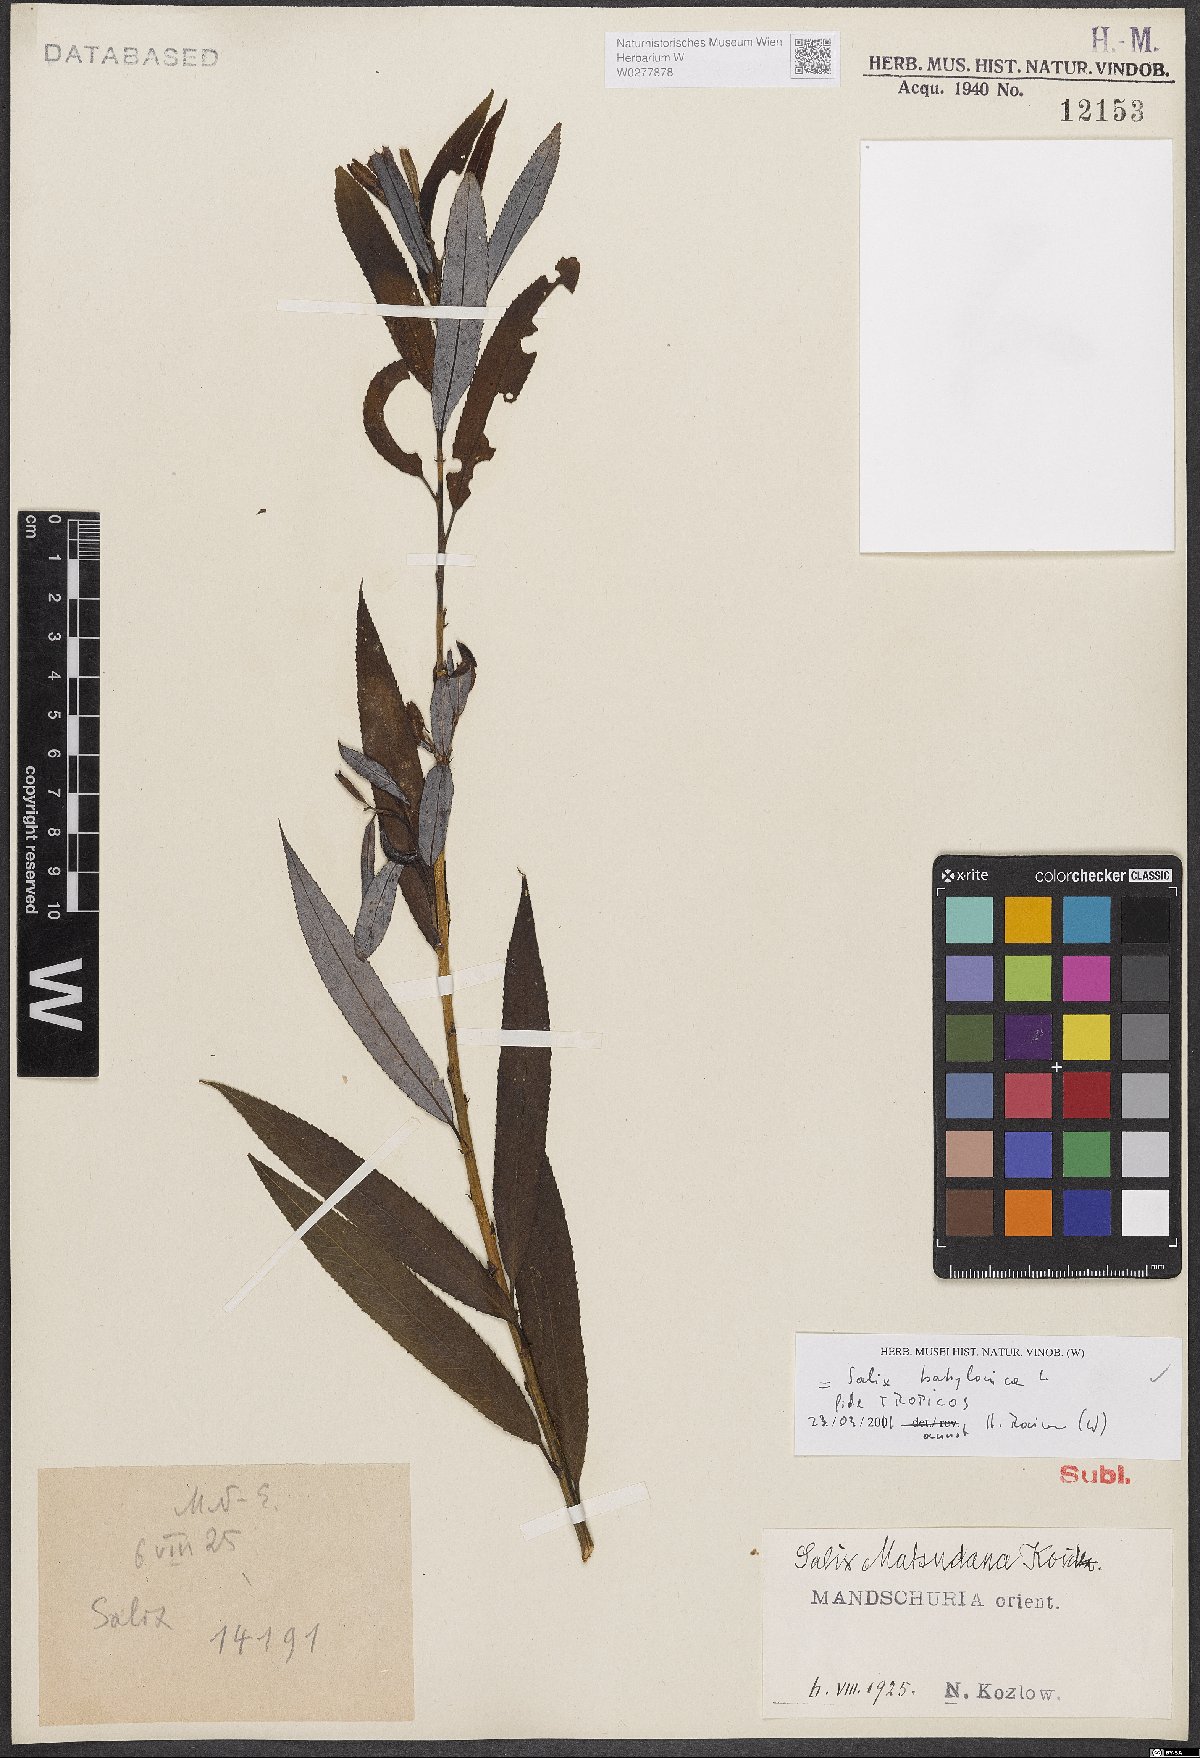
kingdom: Plantae
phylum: Tracheophyta
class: Magnoliopsida
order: Malpighiales
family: Salicaceae
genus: Salix
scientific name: Salix babylonica
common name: Weeping willow
